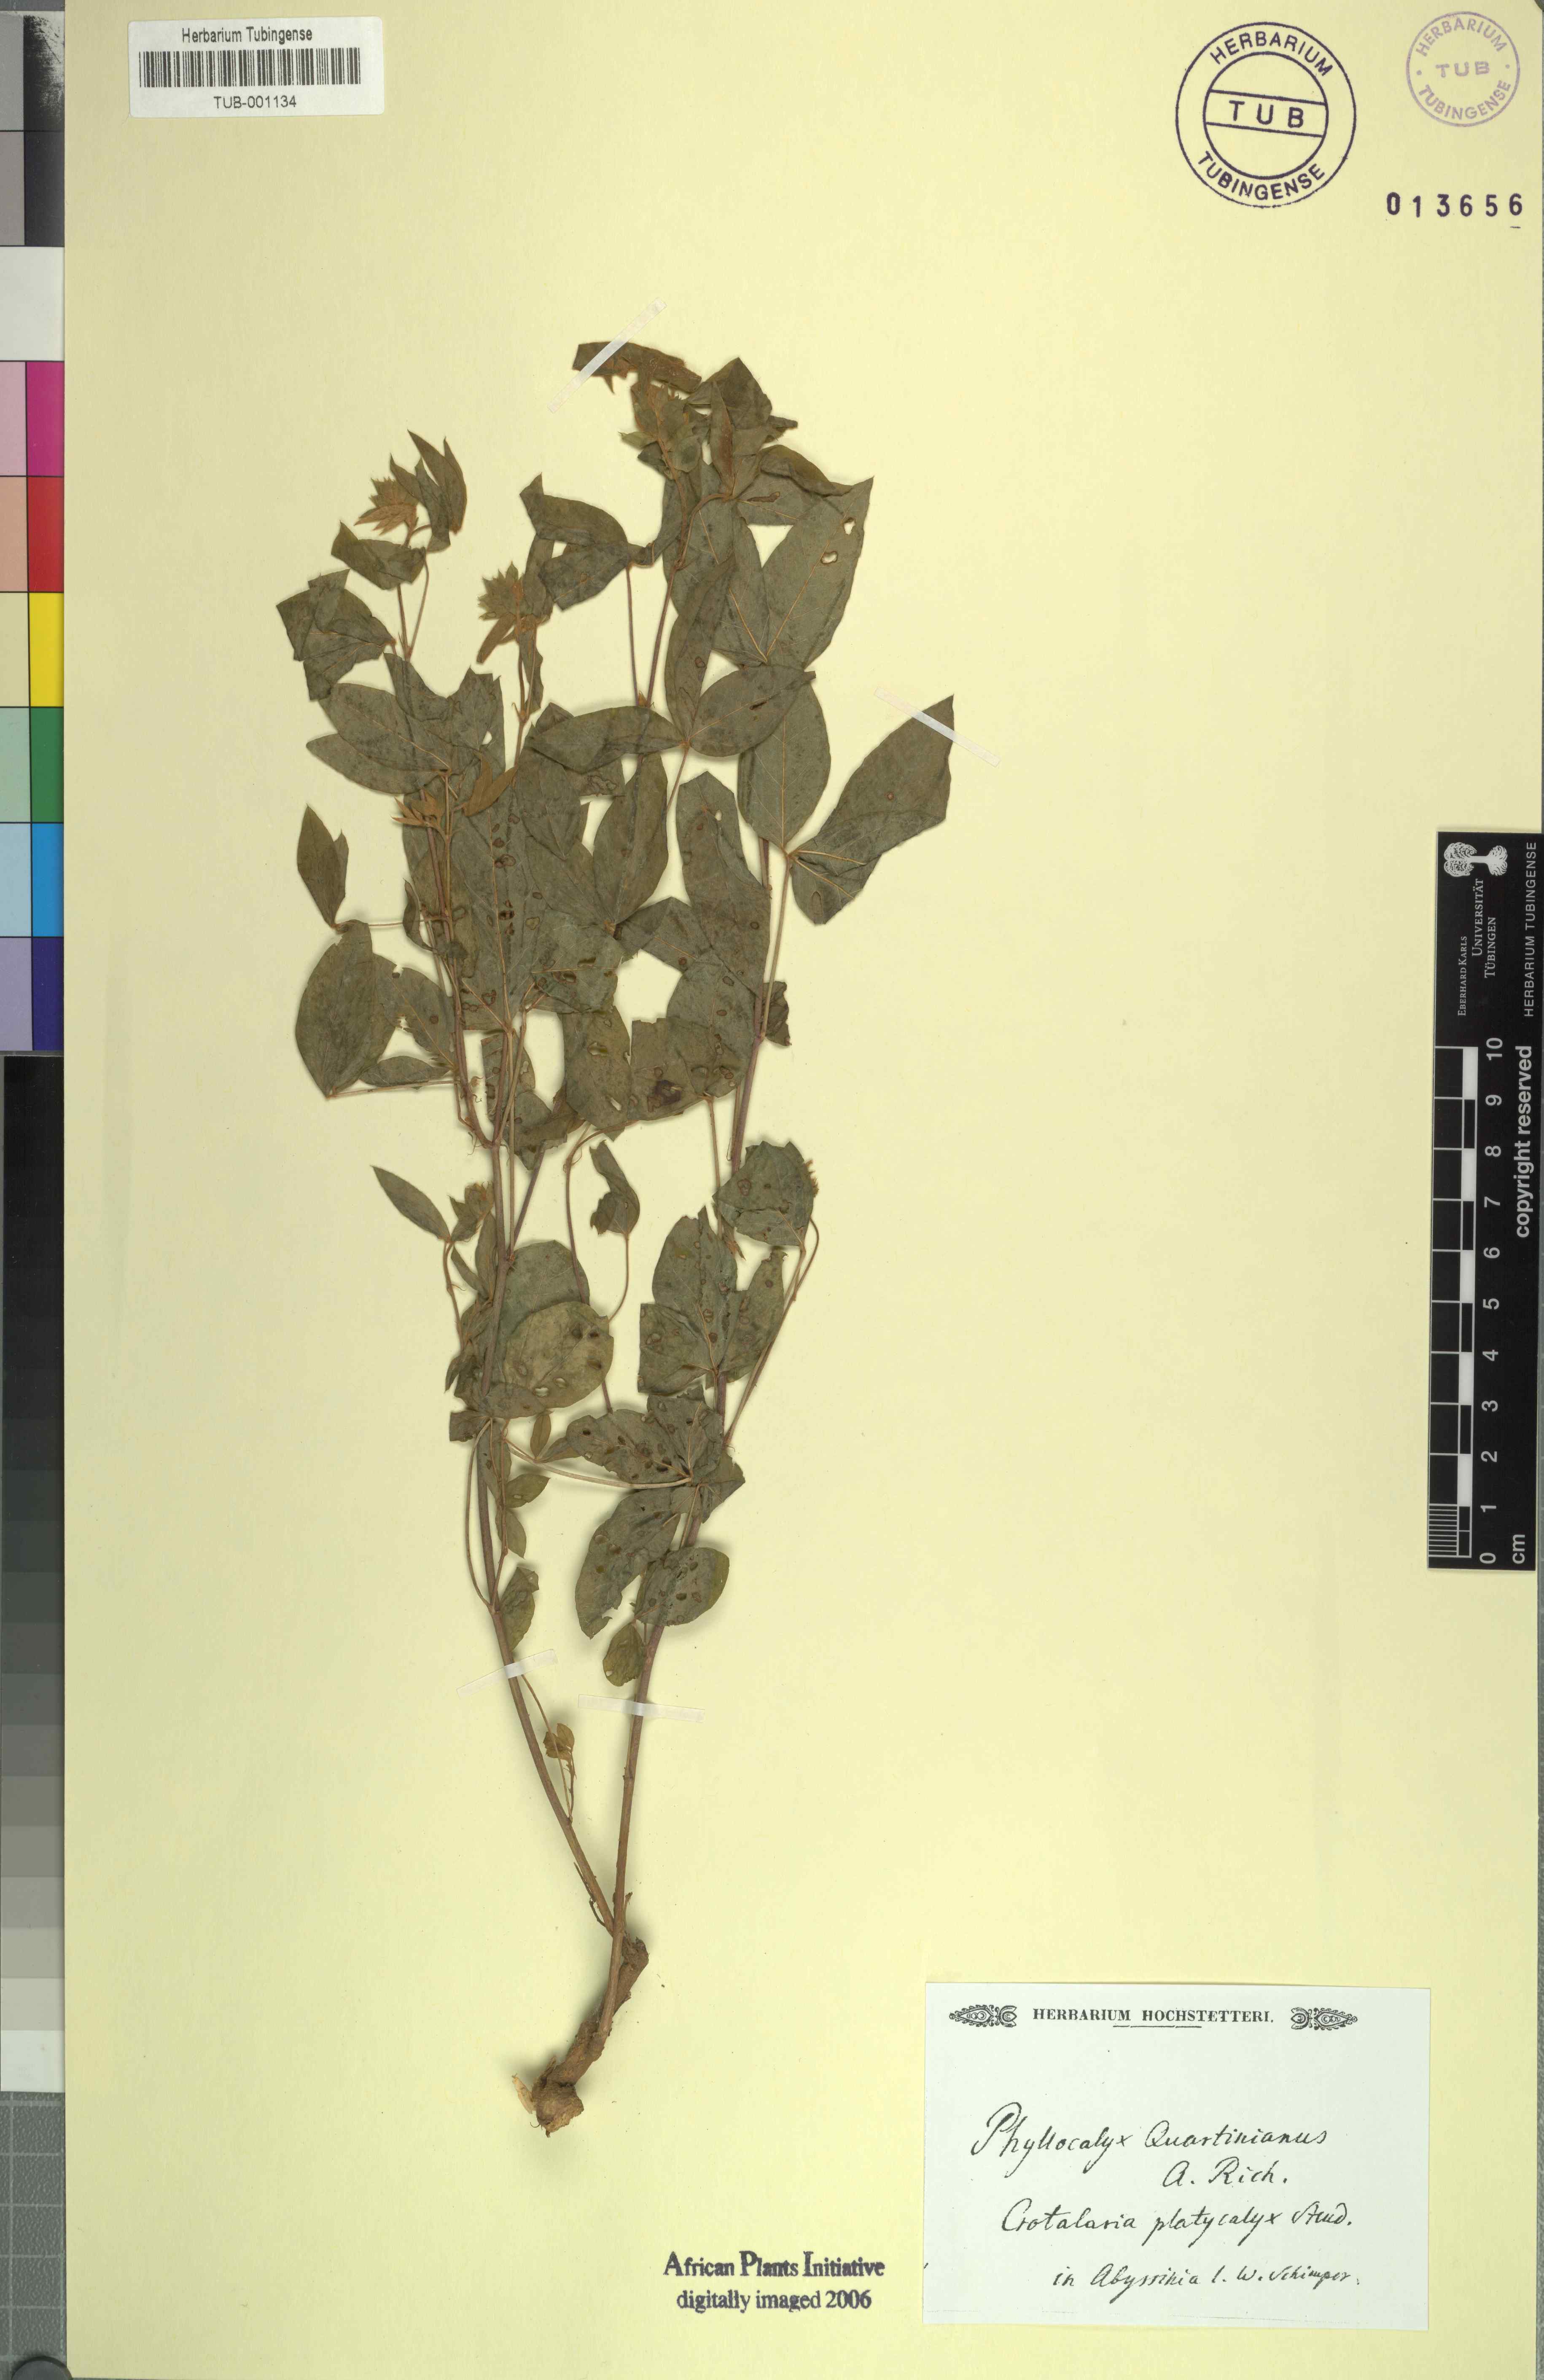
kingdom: Plantae
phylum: Tracheophyta
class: Magnoliopsida
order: Fabales
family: Fabaceae
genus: Crotalaria
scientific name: Crotalaria quartiniana
